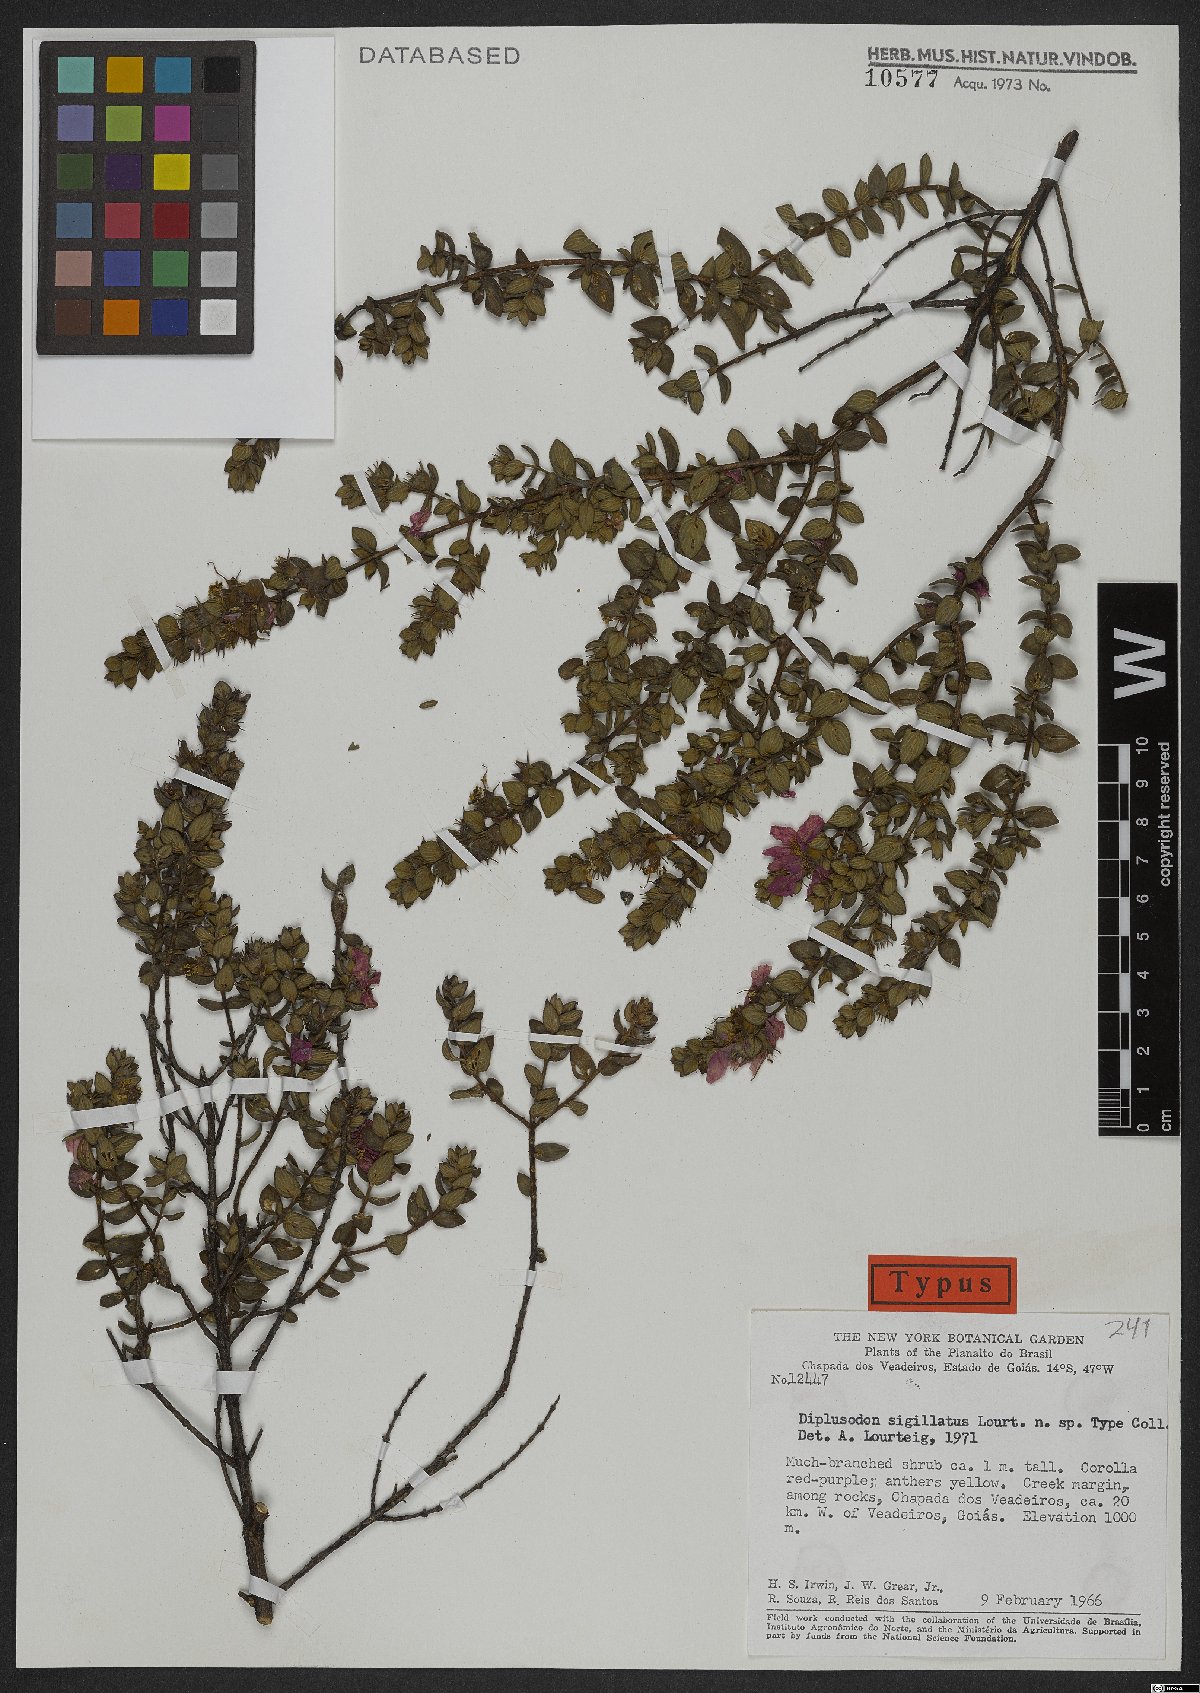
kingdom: Plantae
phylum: Tracheophyta
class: Magnoliopsida
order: Myrtales
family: Lythraceae
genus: Diplusodon
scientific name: Diplusodon sigillatus
